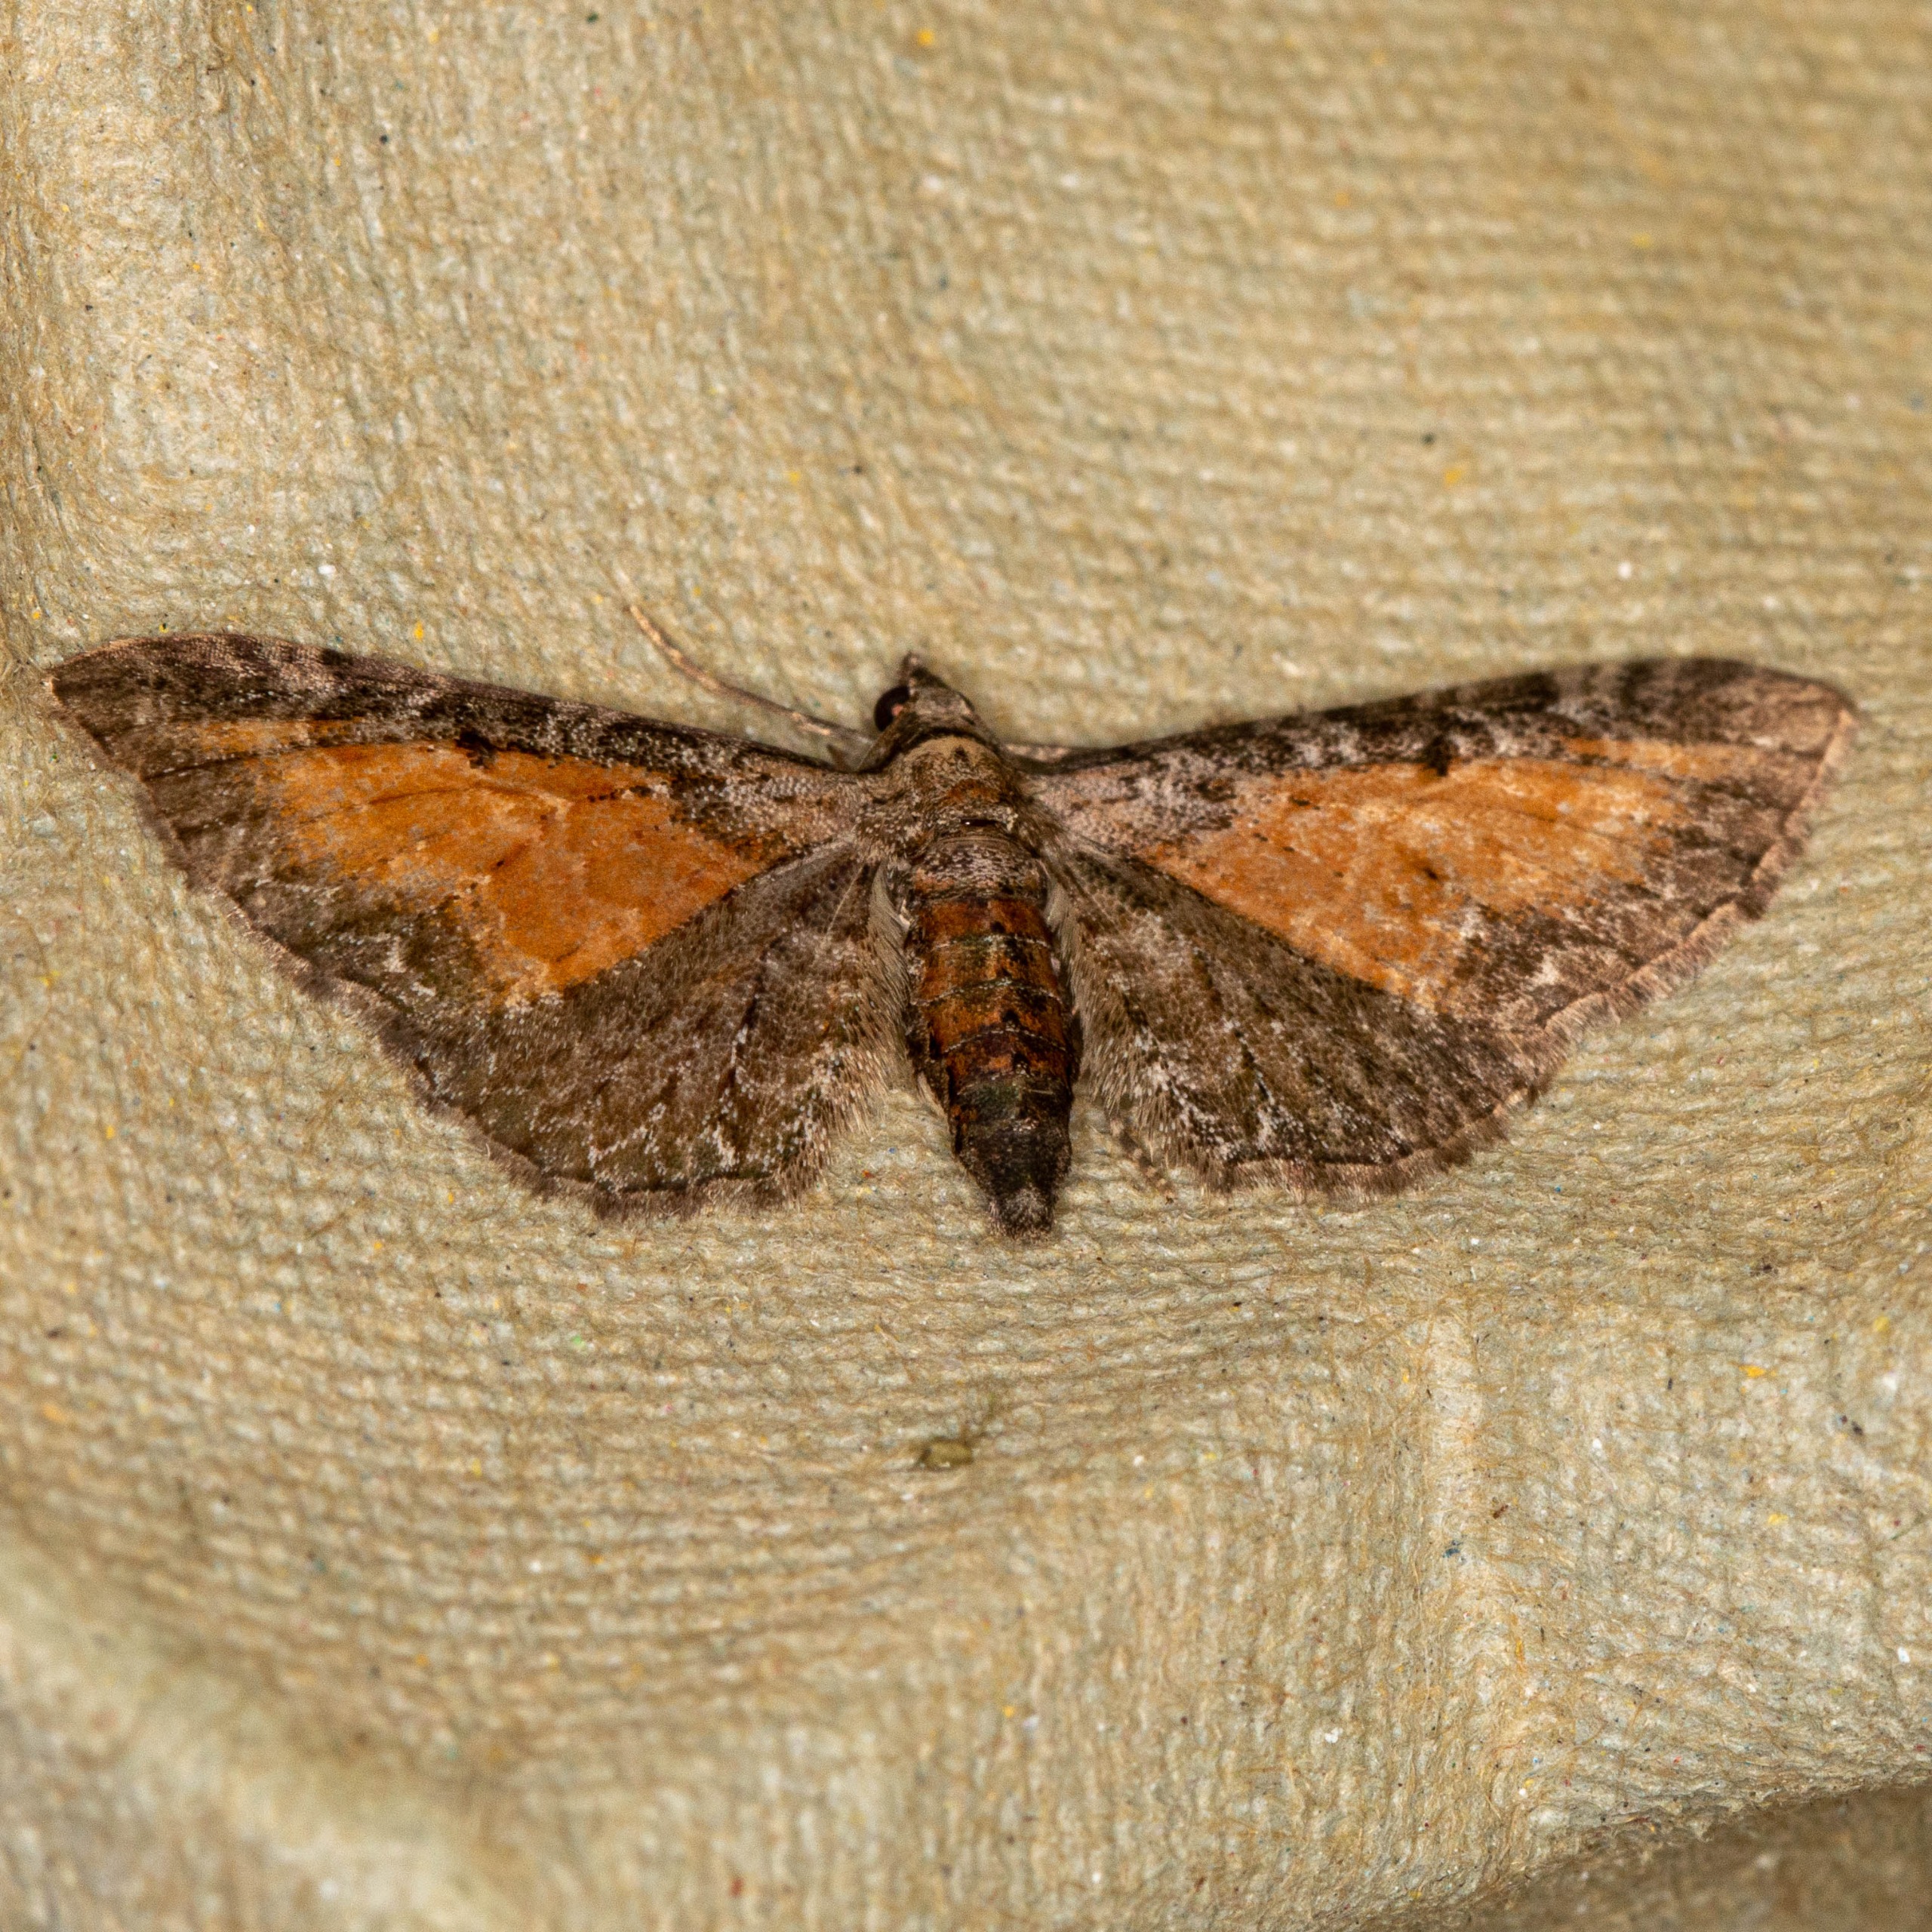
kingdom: Animalia
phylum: Arthropoda
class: Insecta
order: Lepidoptera
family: Geometridae
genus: Eupithecia
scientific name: Eupithecia icterata
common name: Røllike-dværgmåler
